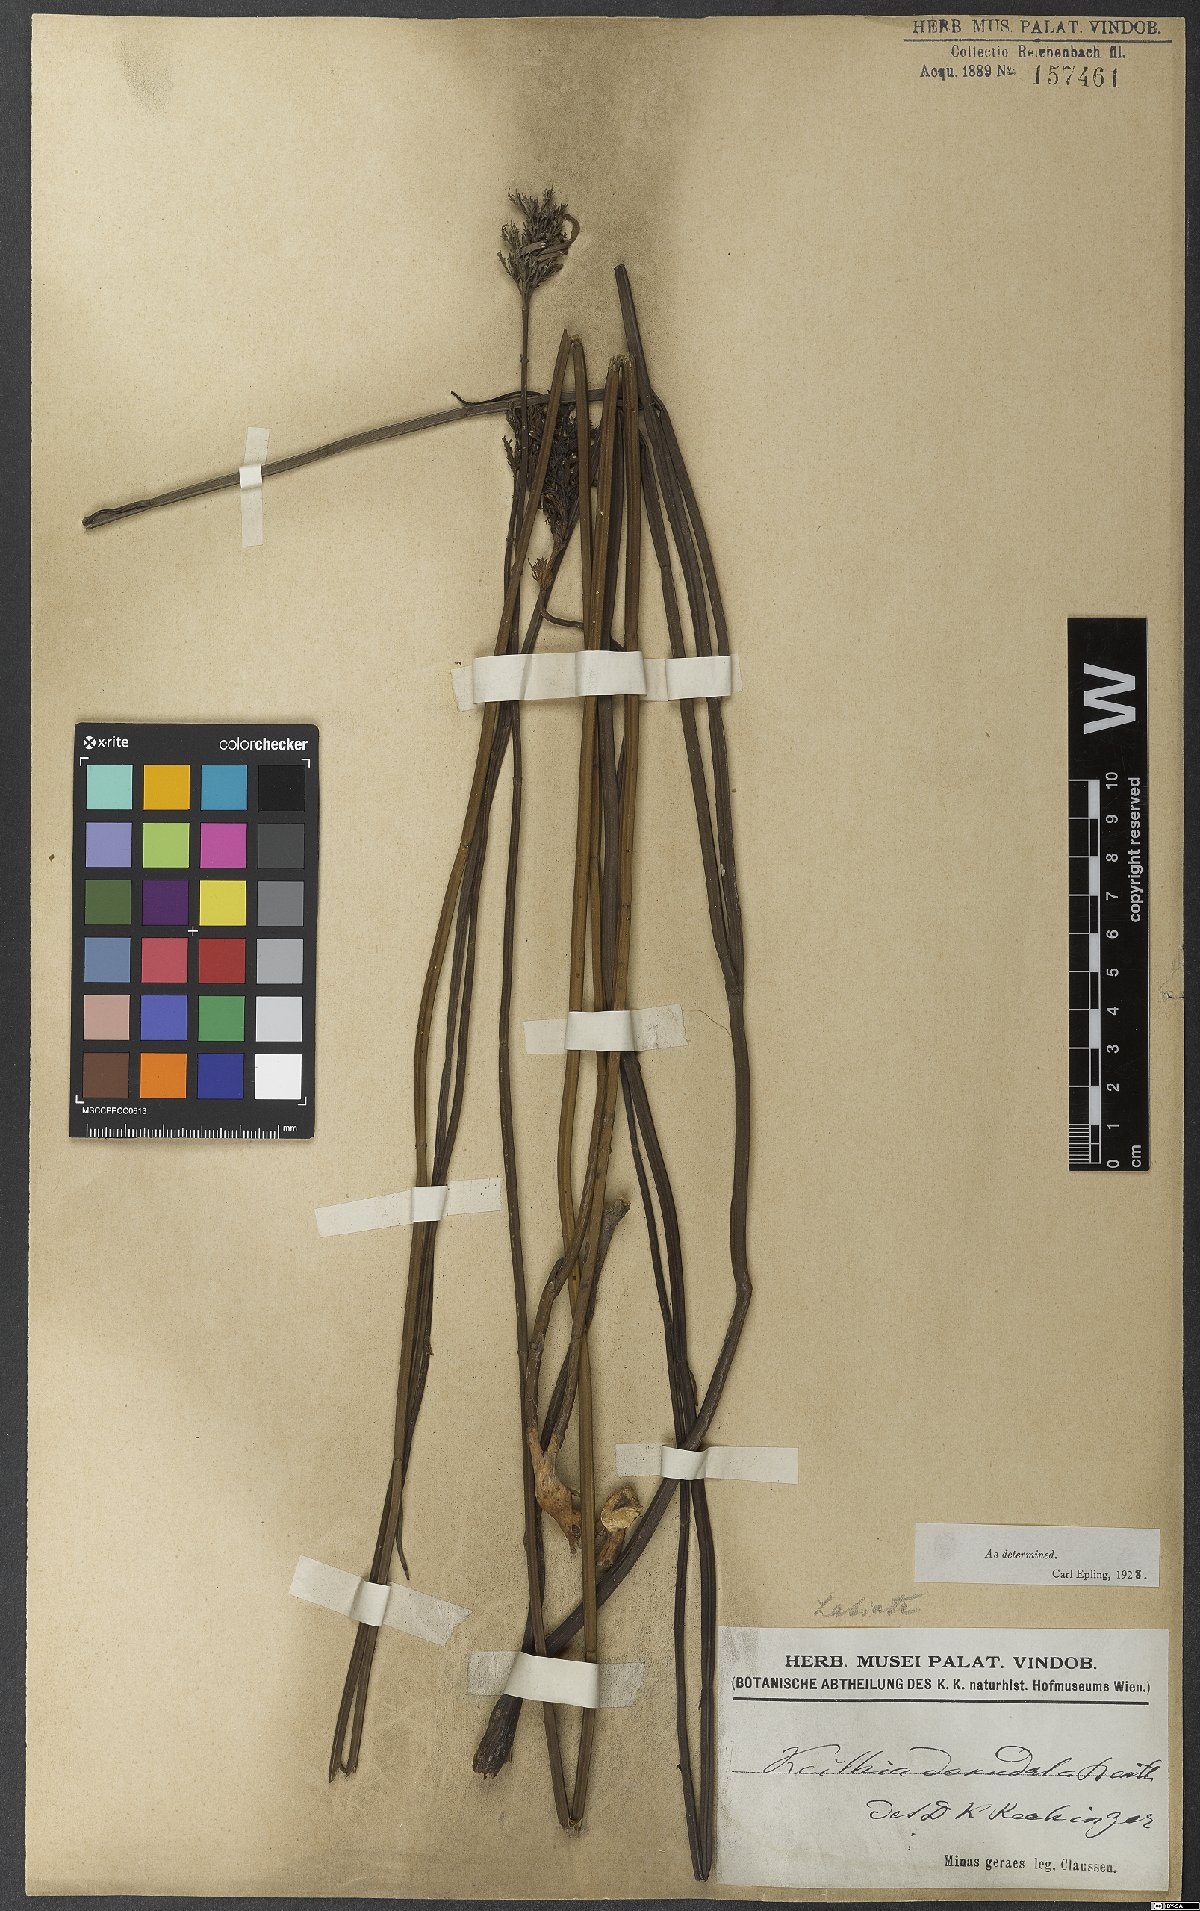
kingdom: Plantae
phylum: Tracheophyta
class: Magnoliopsida
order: Lamiales
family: Lamiaceae
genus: Rhabdocaulon
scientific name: Rhabdocaulon denudatum
